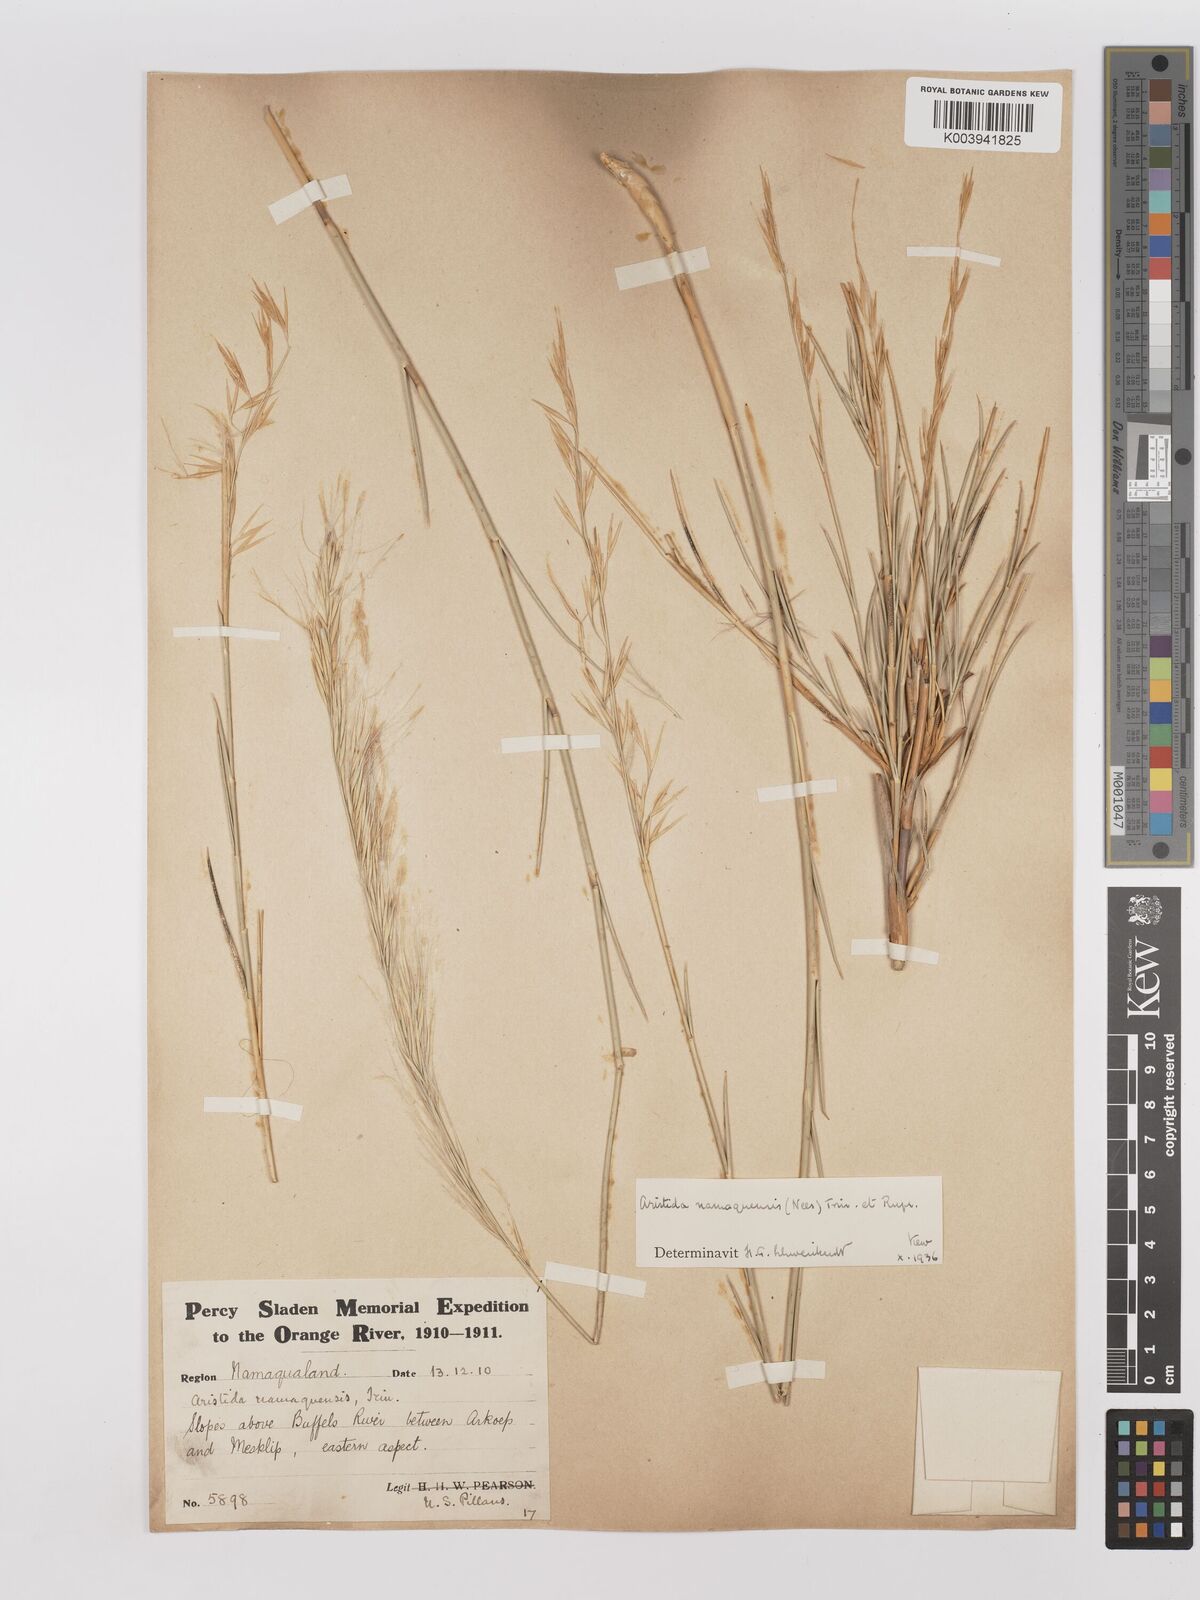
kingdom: Plantae
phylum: Tracheophyta
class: Liliopsida
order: Poales
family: Poaceae
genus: Stipagrostis
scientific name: Stipagrostis namaquensis
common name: River bushman grass
